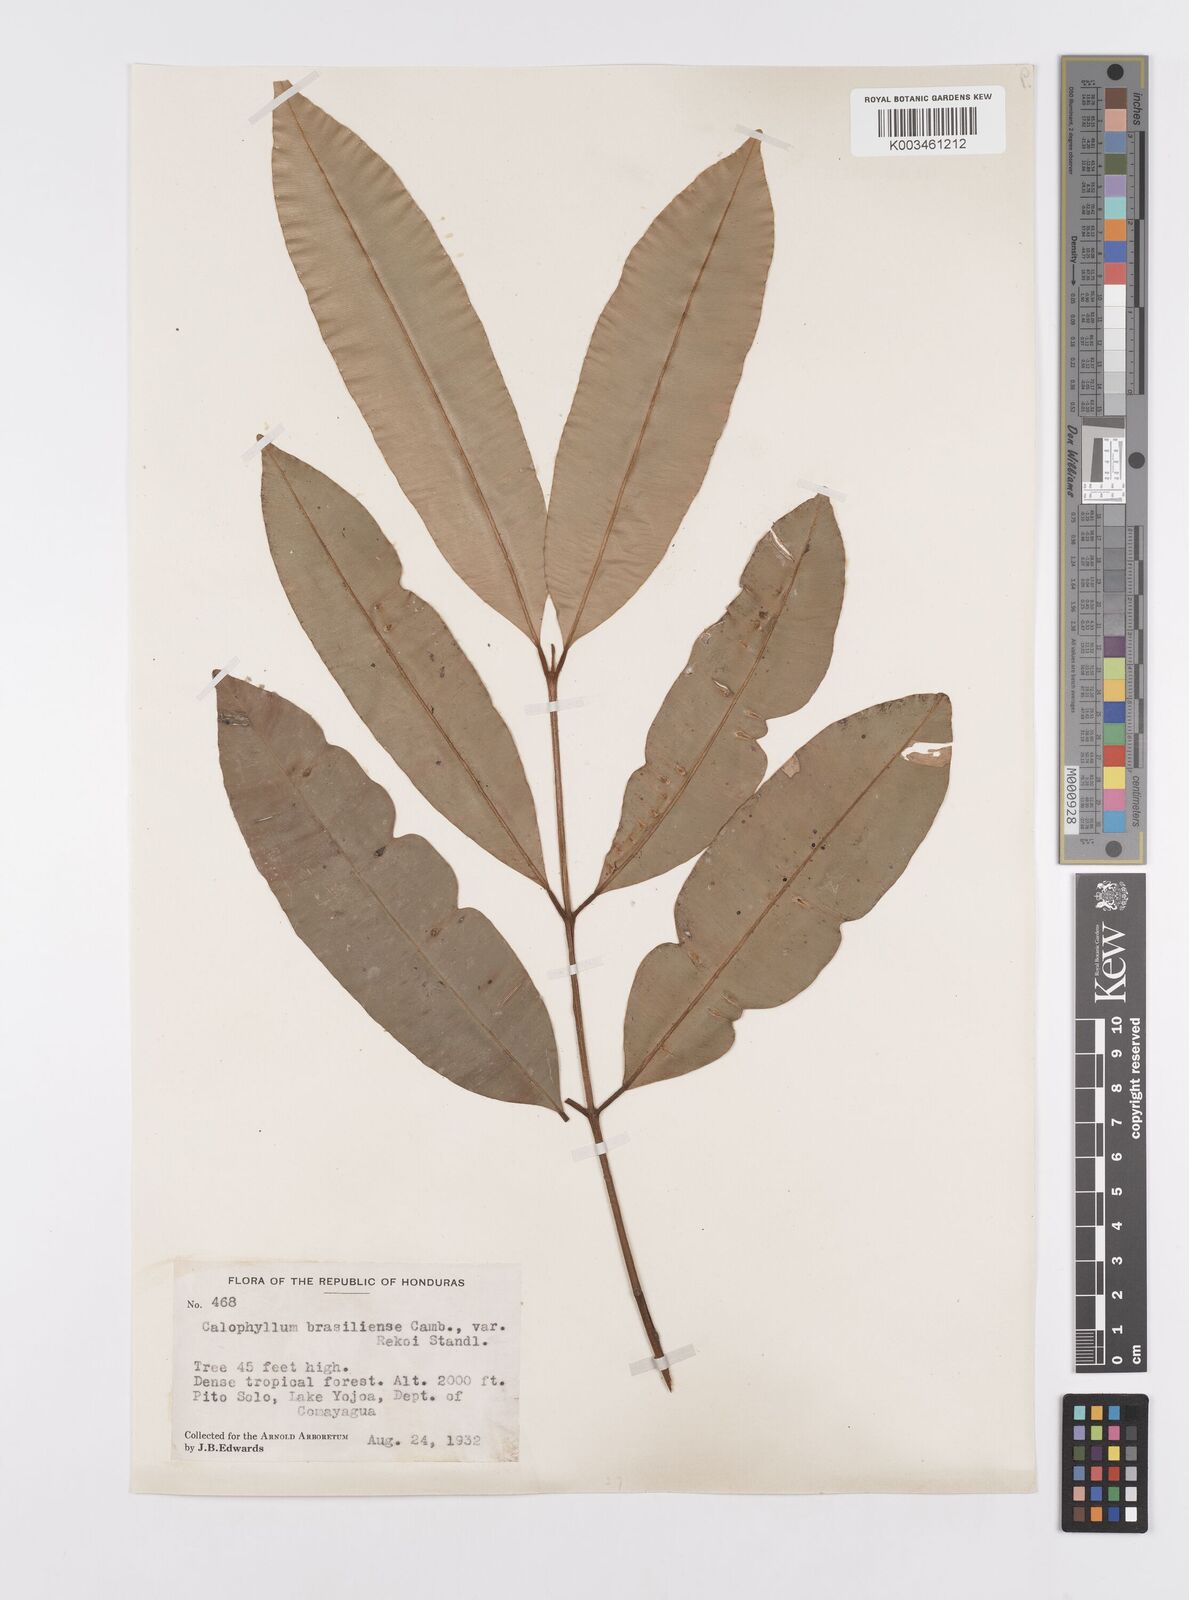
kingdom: Plantae
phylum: Tracheophyta
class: Magnoliopsida
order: Malpighiales
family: Calophyllaceae
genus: Calophyllum
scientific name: Calophyllum brasiliense
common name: Santa maria
